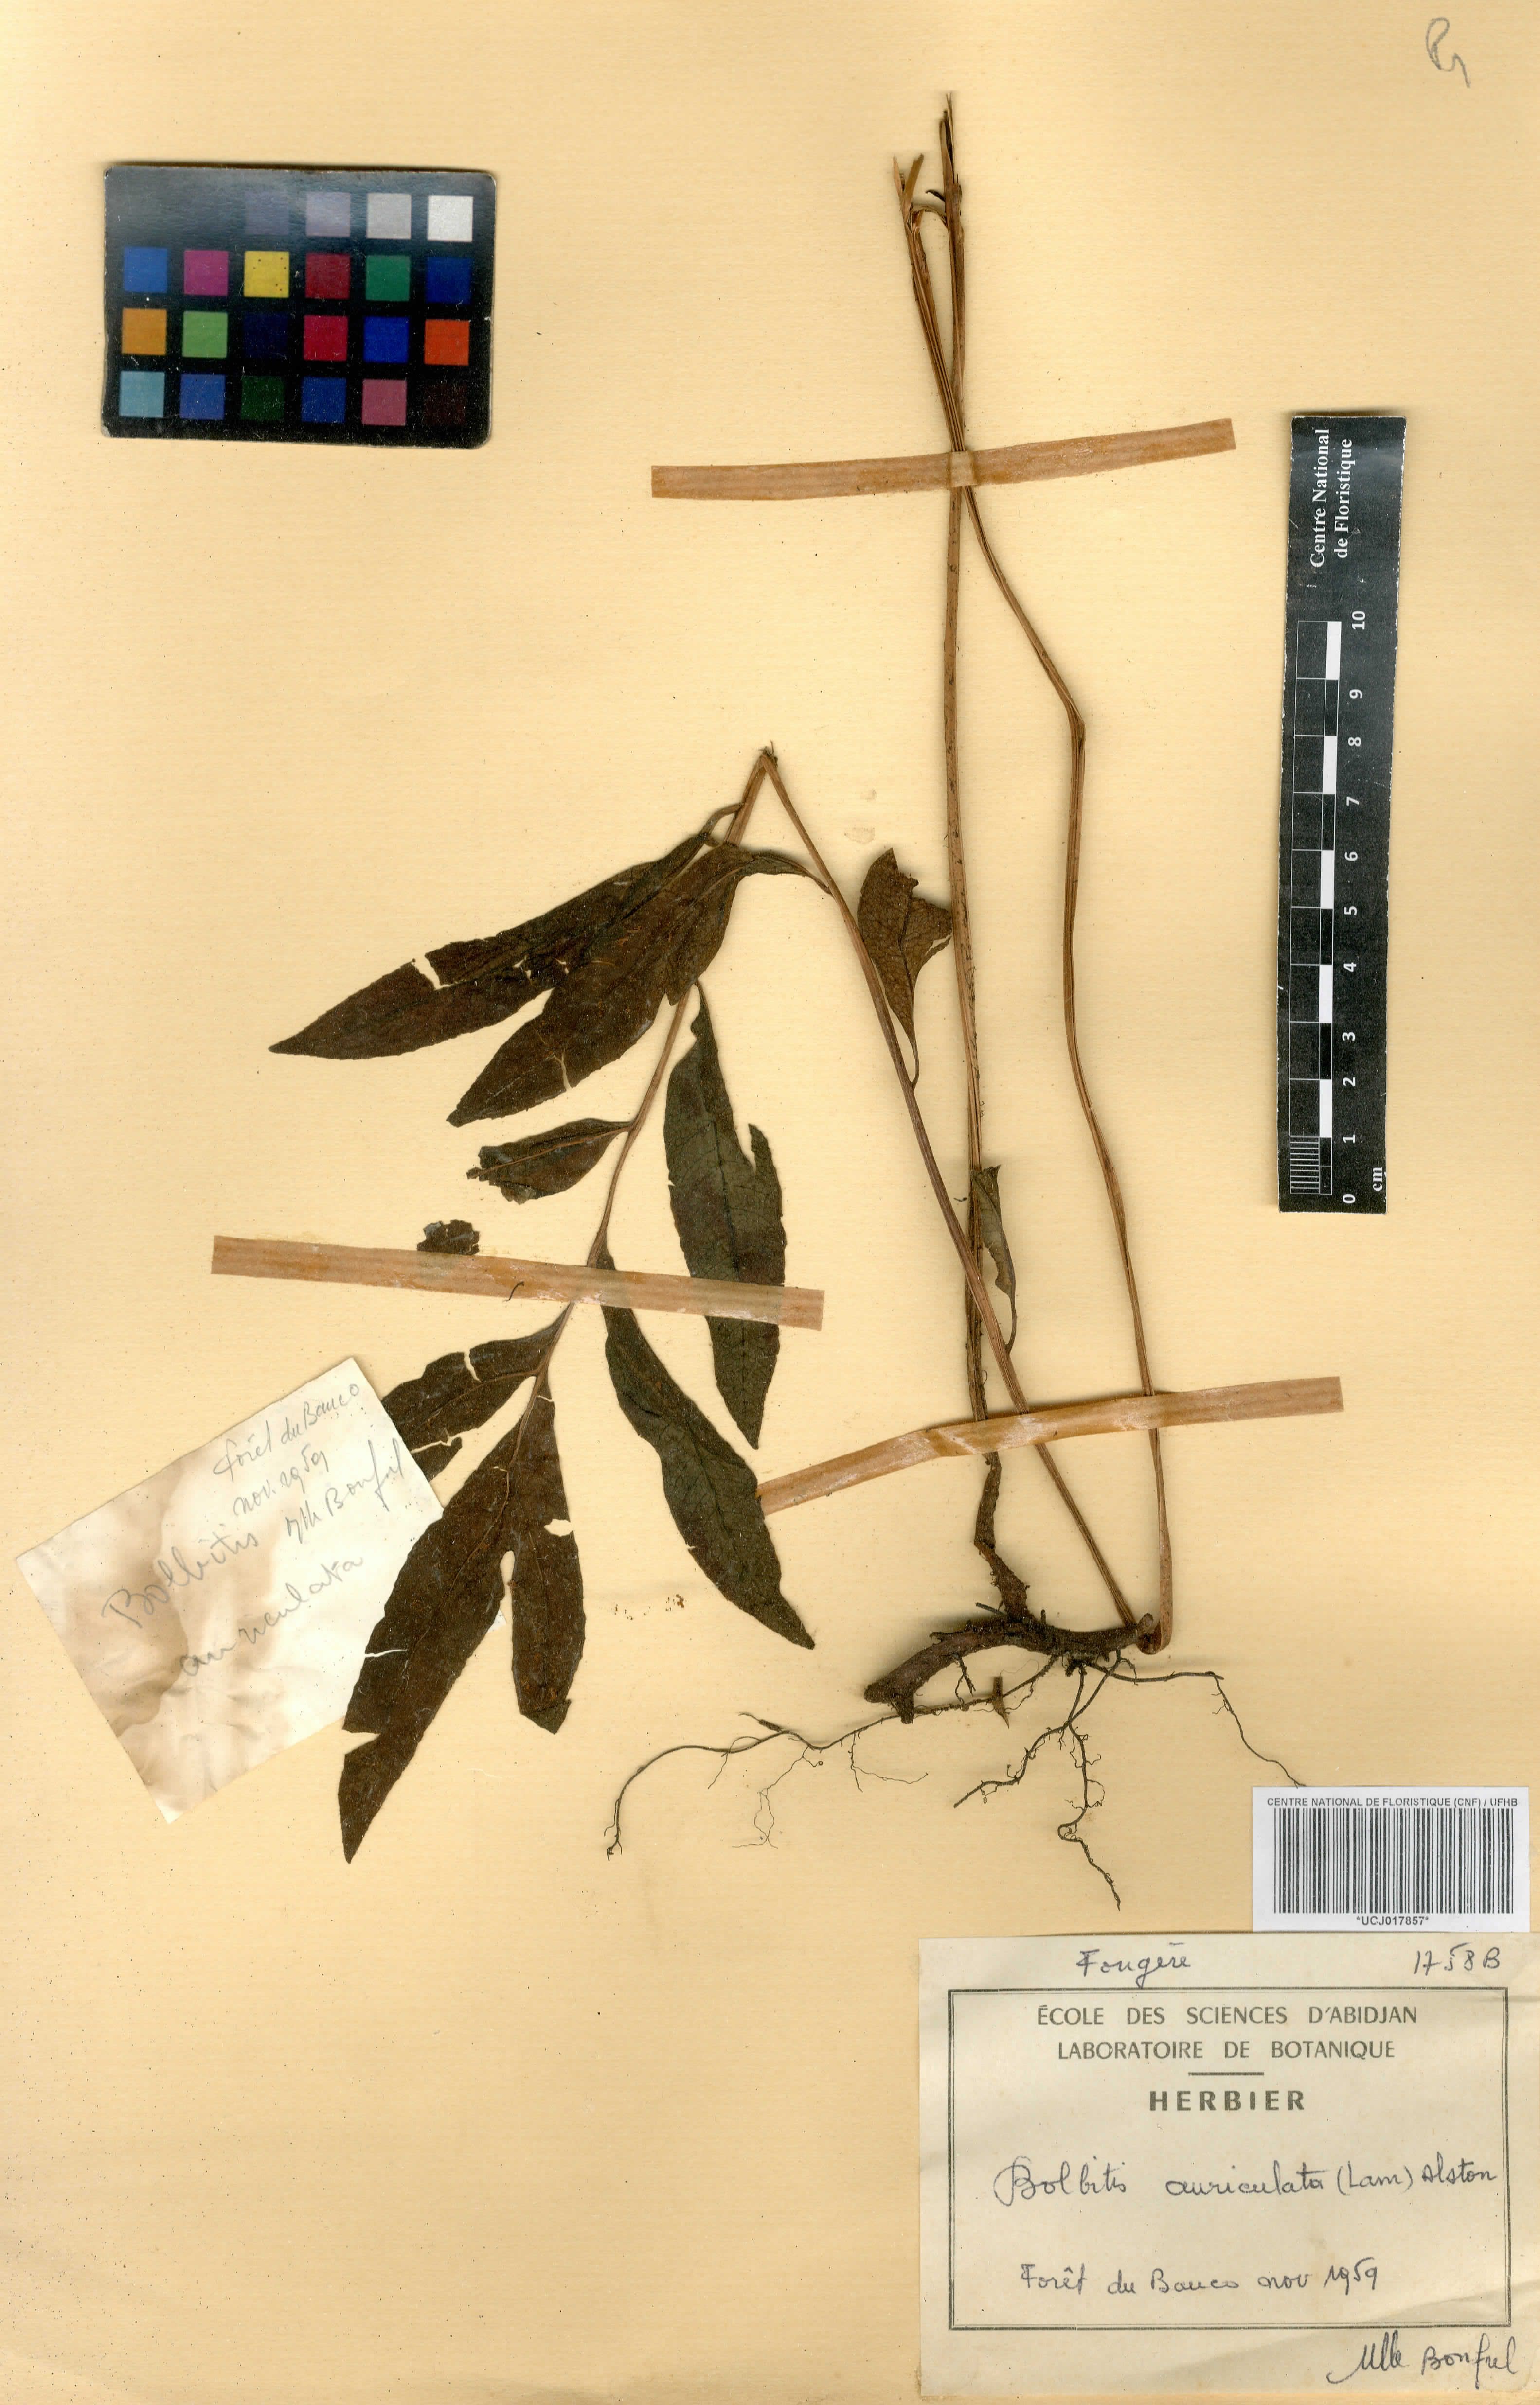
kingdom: Plantae
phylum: Tracheophyta
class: Polypodiopsida
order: Polypodiales
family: Dryopteridaceae
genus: Bolbitis
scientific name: Bolbitis auriculata
